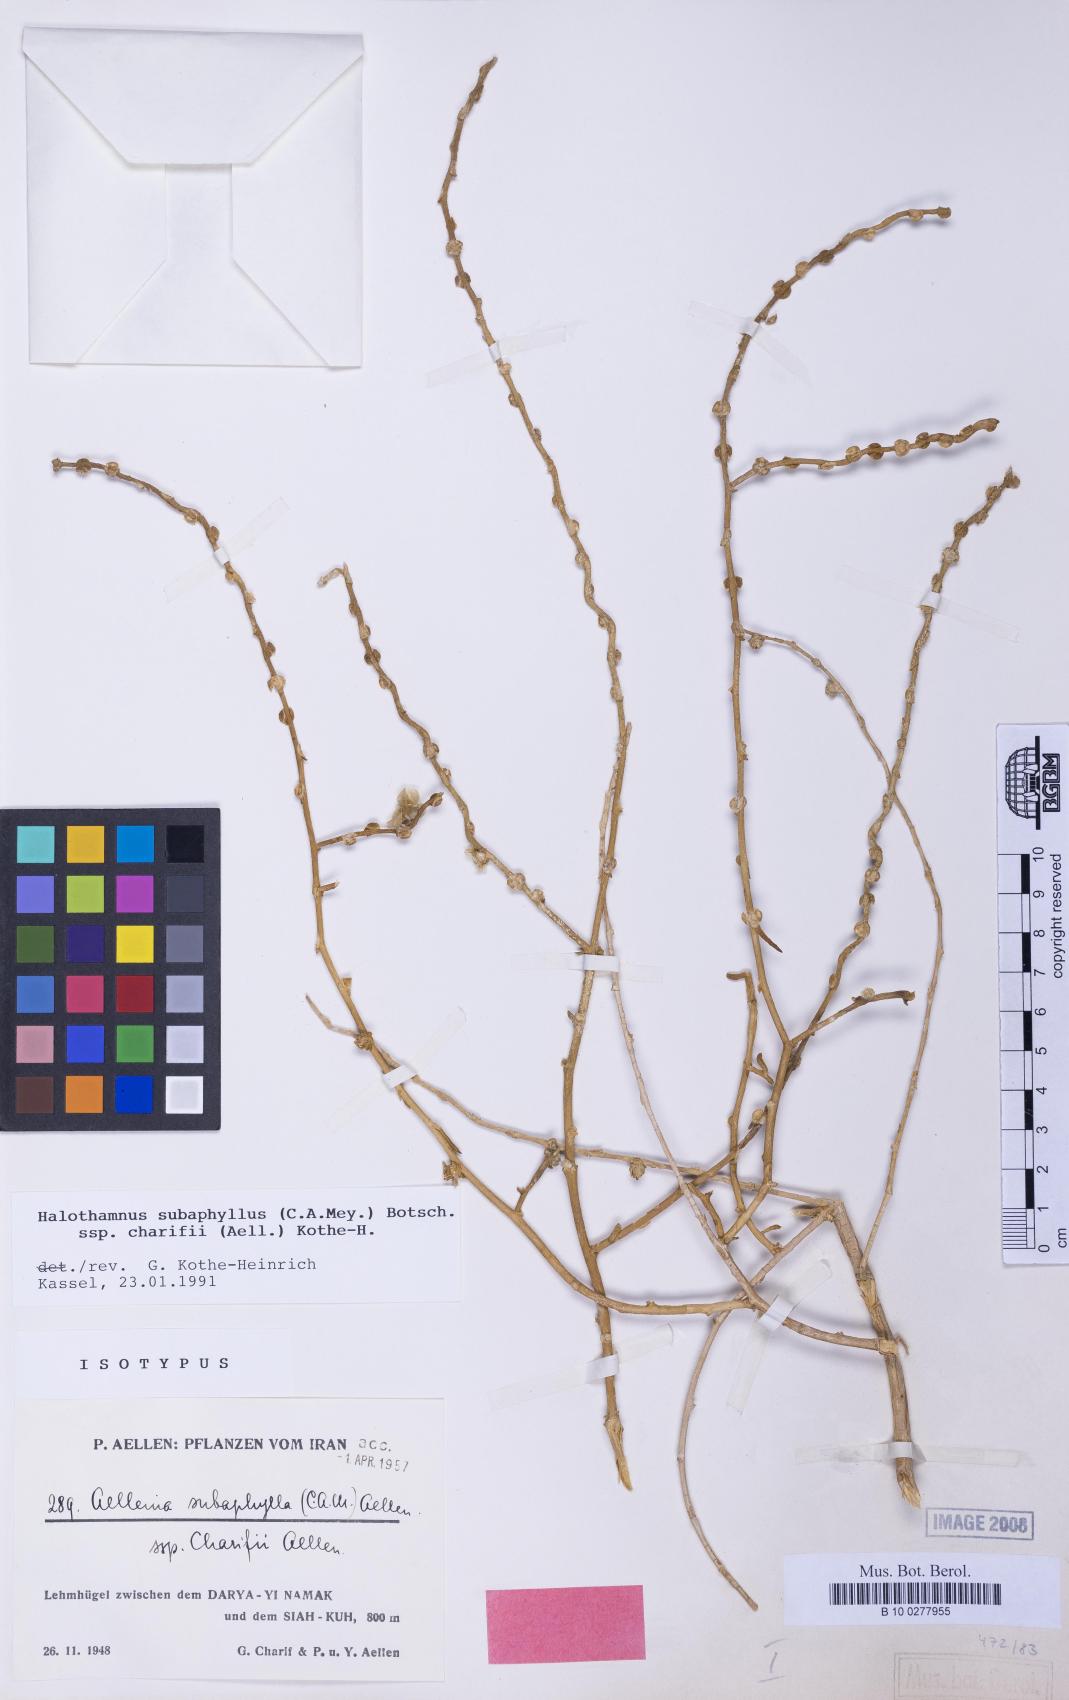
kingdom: Plantae
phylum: Tracheophyta
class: Magnoliopsida
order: Caryophyllales
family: Amaranthaceae
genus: Halothamnus
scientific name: Halothamnus subaphyllus
